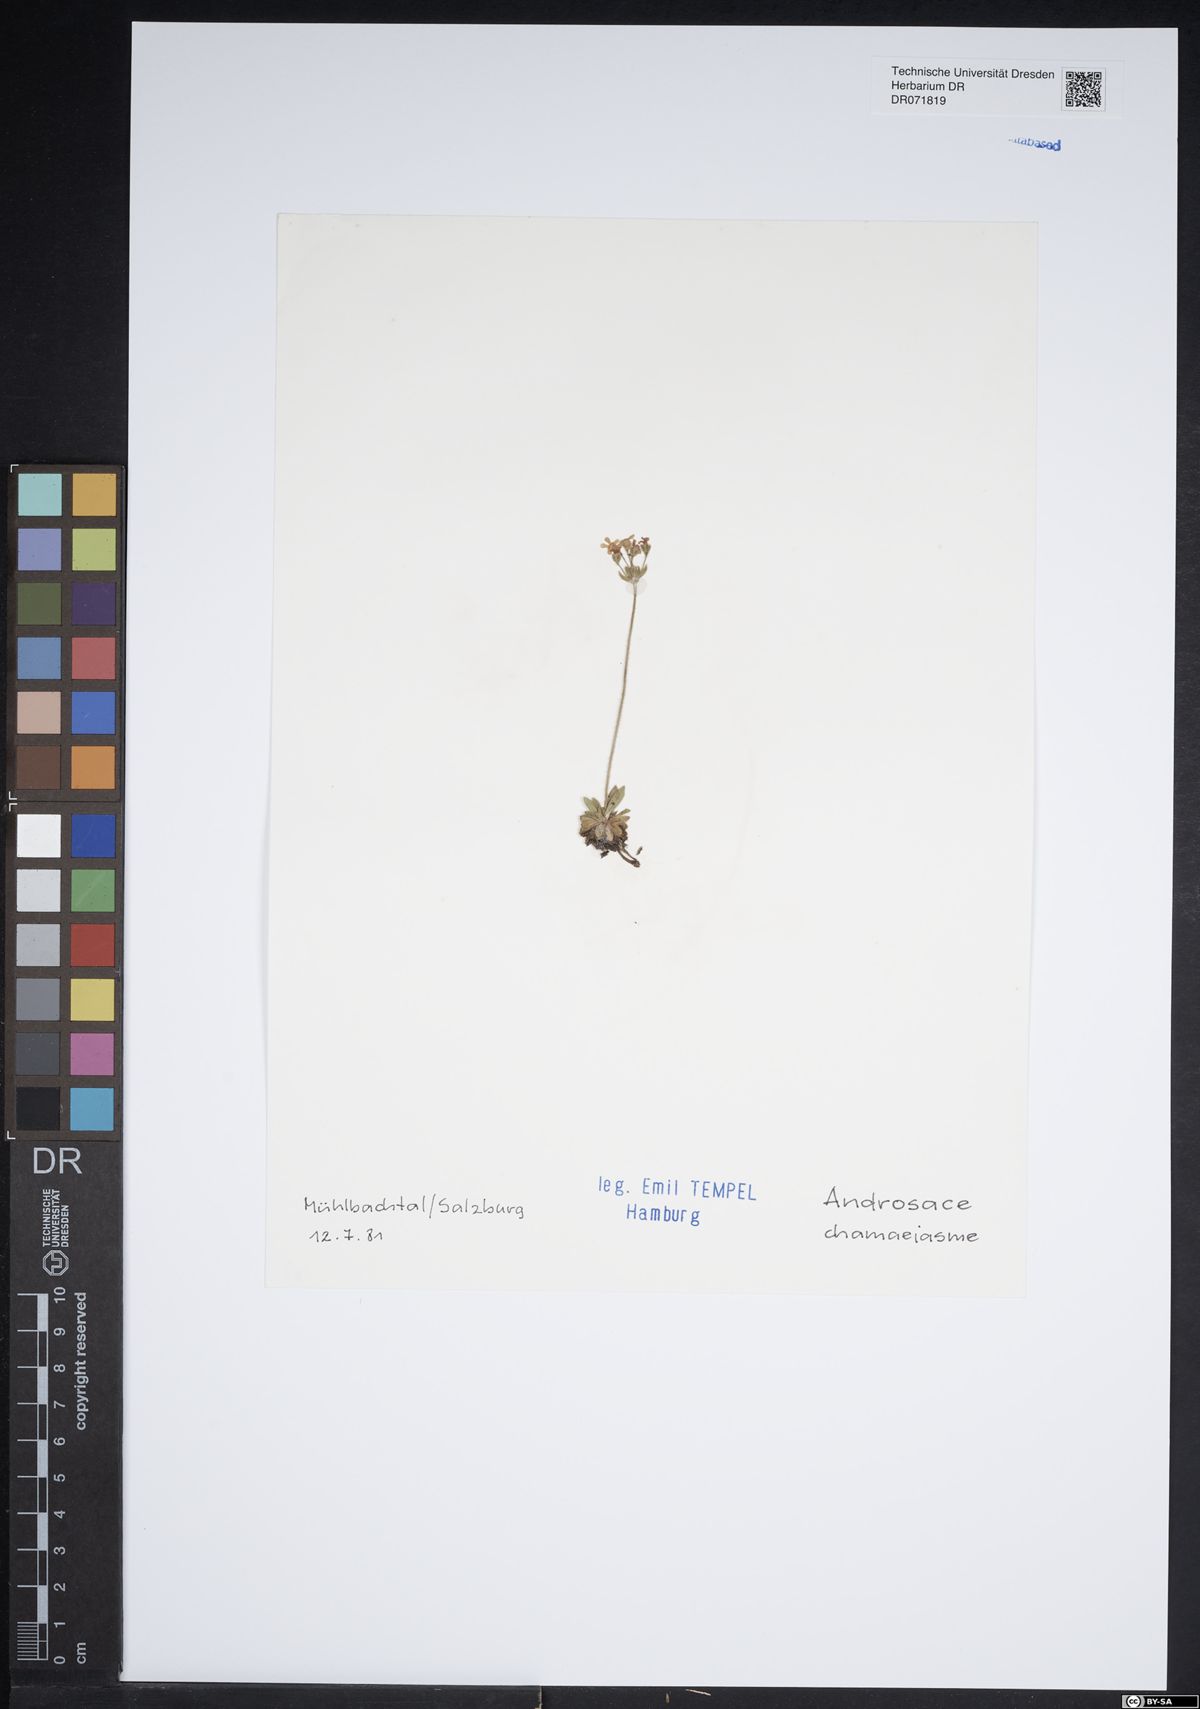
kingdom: Plantae
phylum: Tracheophyta
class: Magnoliopsida
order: Ericales
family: Primulaceae
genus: Androsace
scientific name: Androsace chamaejasme
